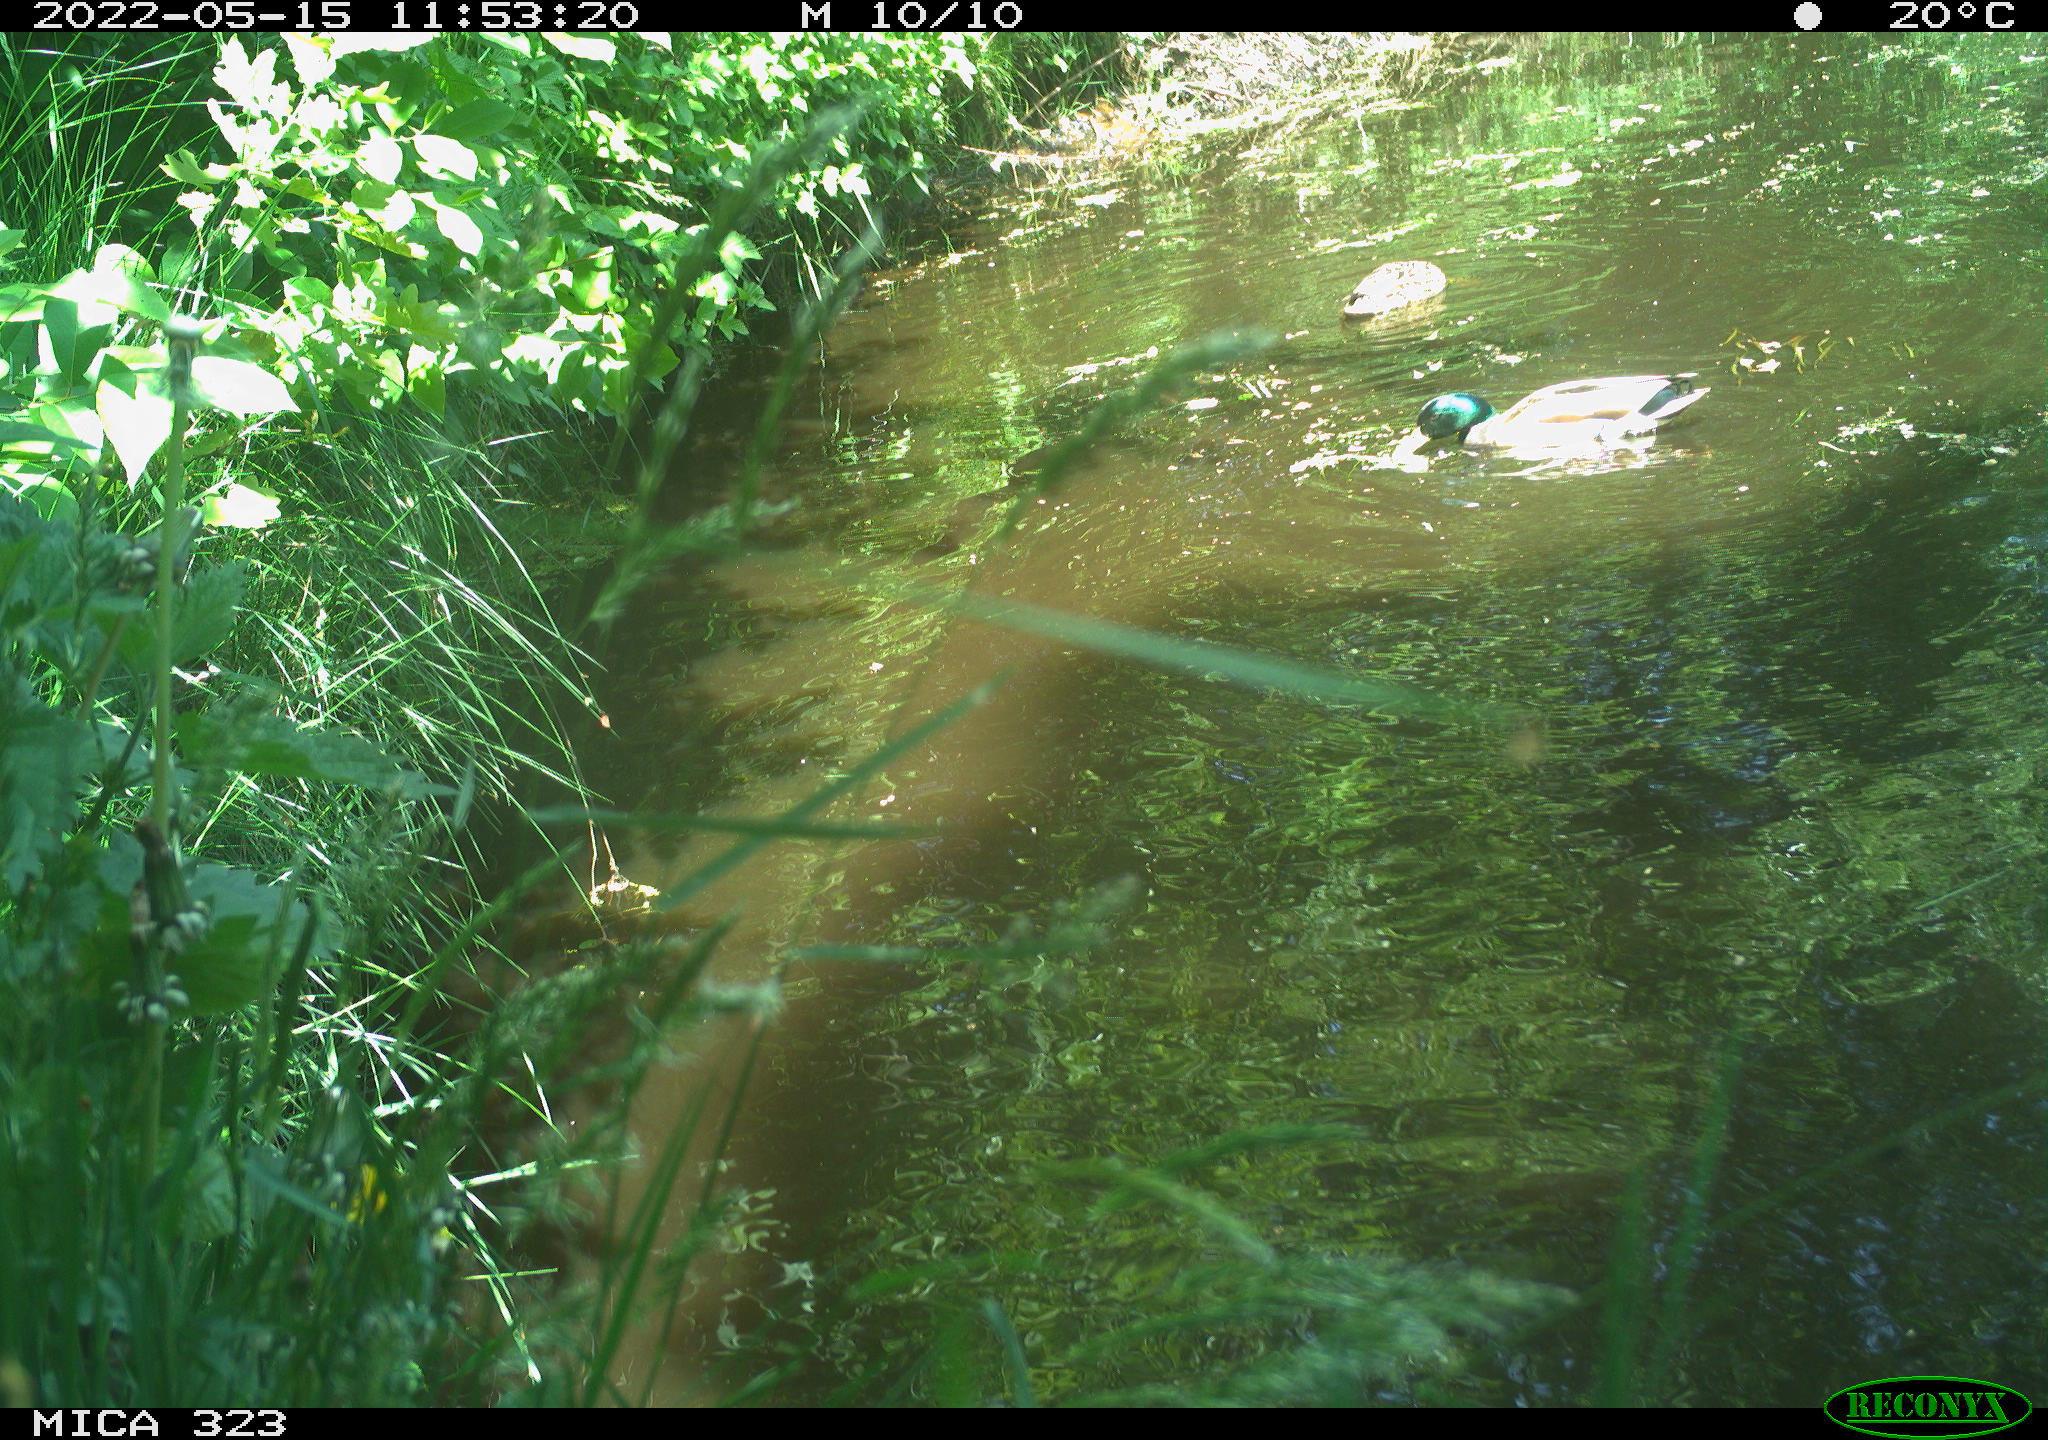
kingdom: Animalia
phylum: Chordata
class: Aves
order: Anseriformes
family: Anatidae
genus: Anas
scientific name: Anas platyrhynchos
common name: Mallard
